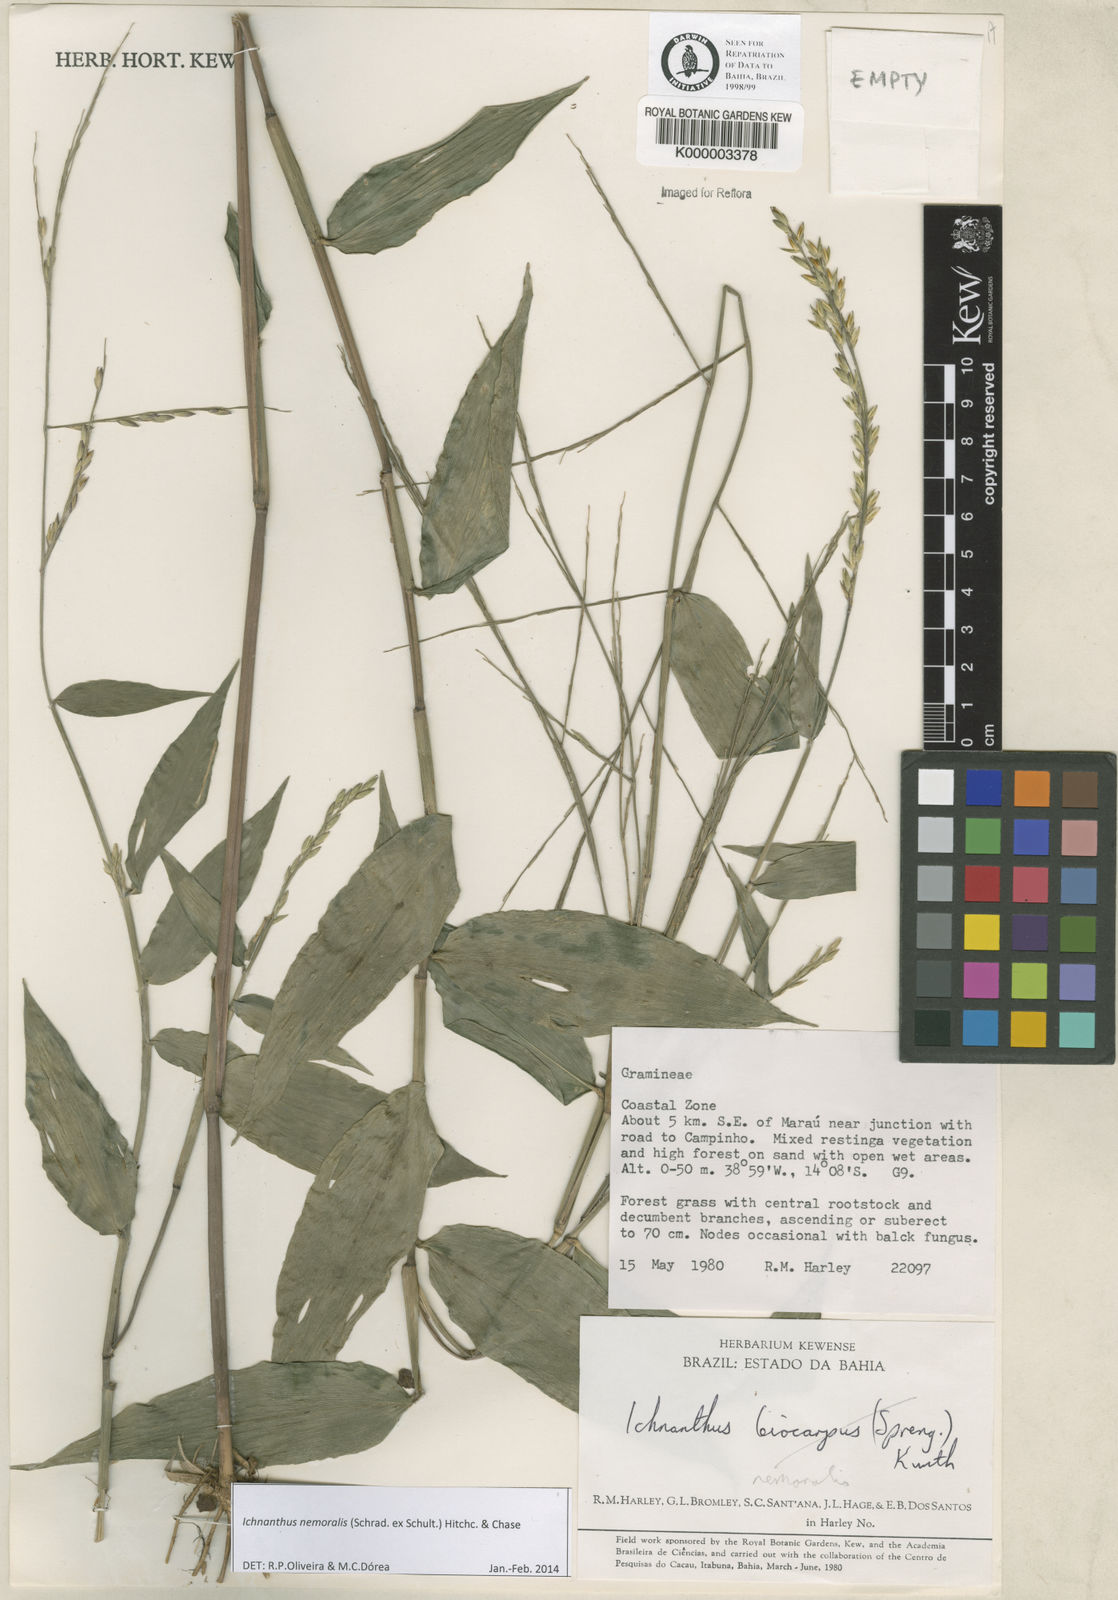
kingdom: Plantae
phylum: Tracheophyta
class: Liliopsida
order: Poales
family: Poaceae
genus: Ichnanthus
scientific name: Ichnanthus nemoralis
